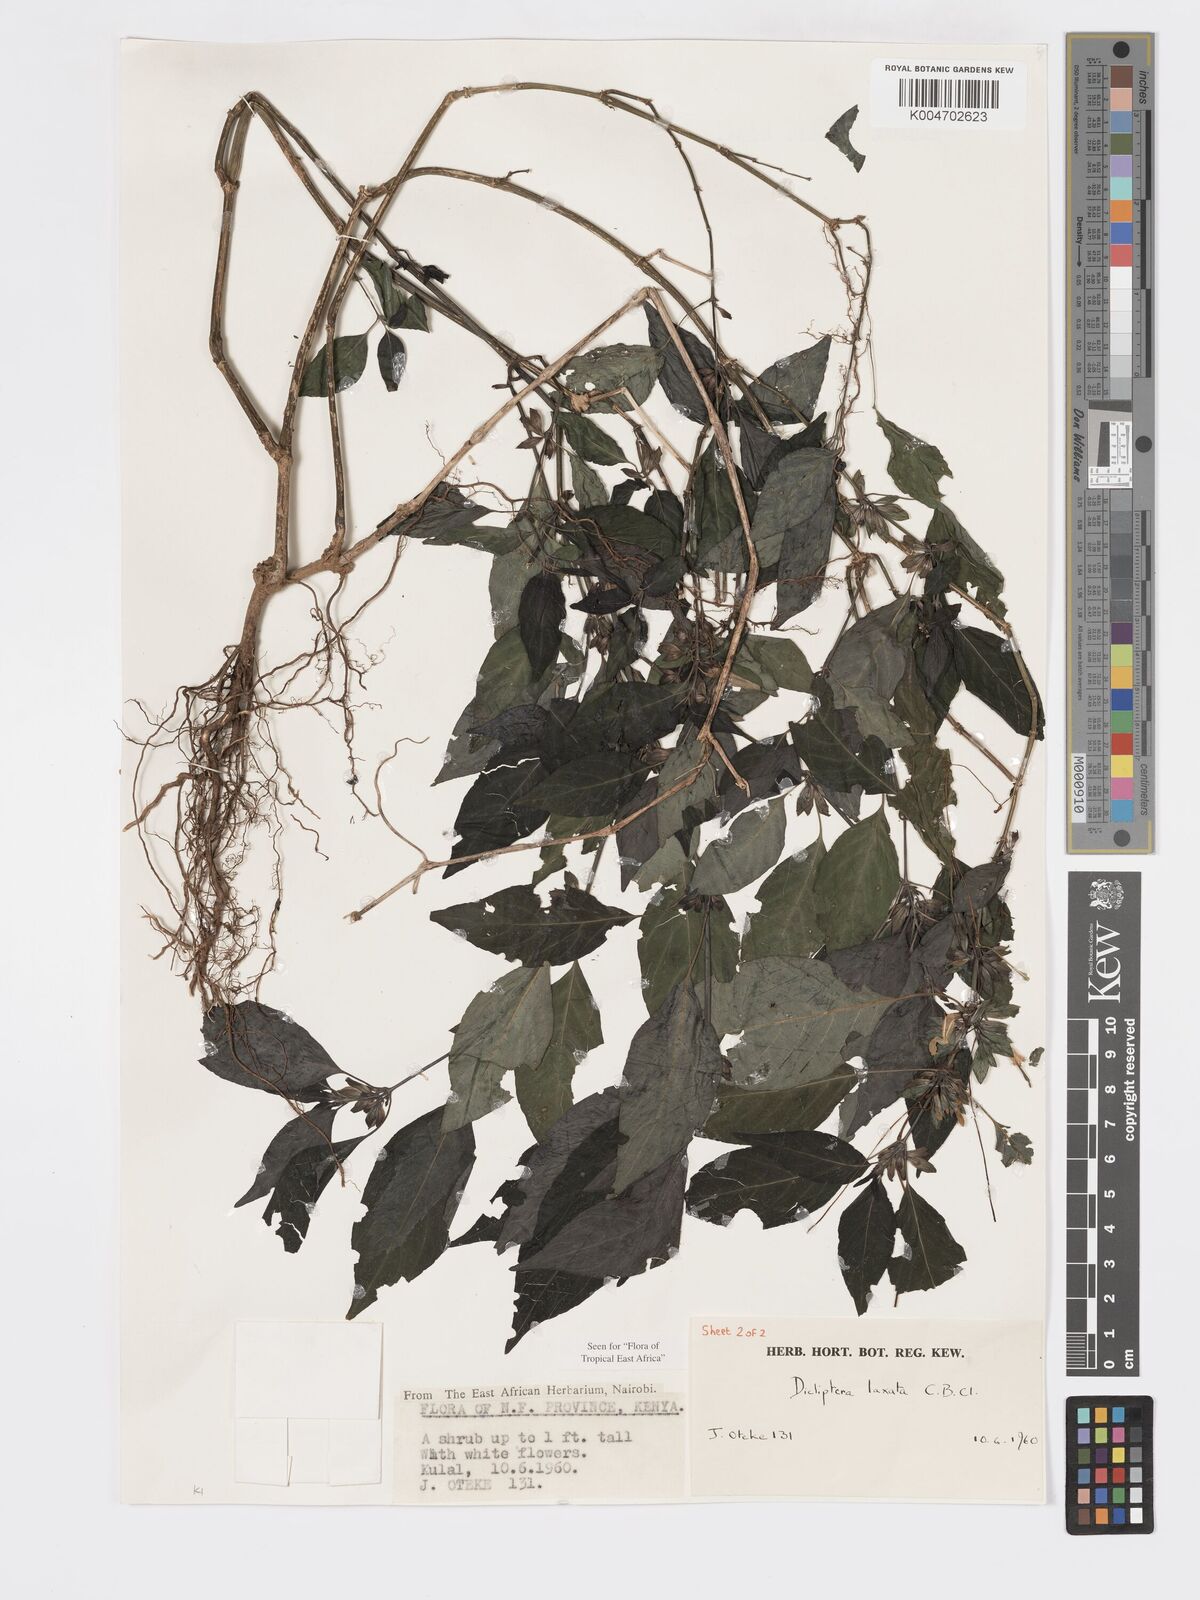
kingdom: Plantae
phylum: Tracheophyta
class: Magnoliopsida
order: Lamiales
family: Acanthaceae
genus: Dicliptera
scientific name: Dicliptera laxata
